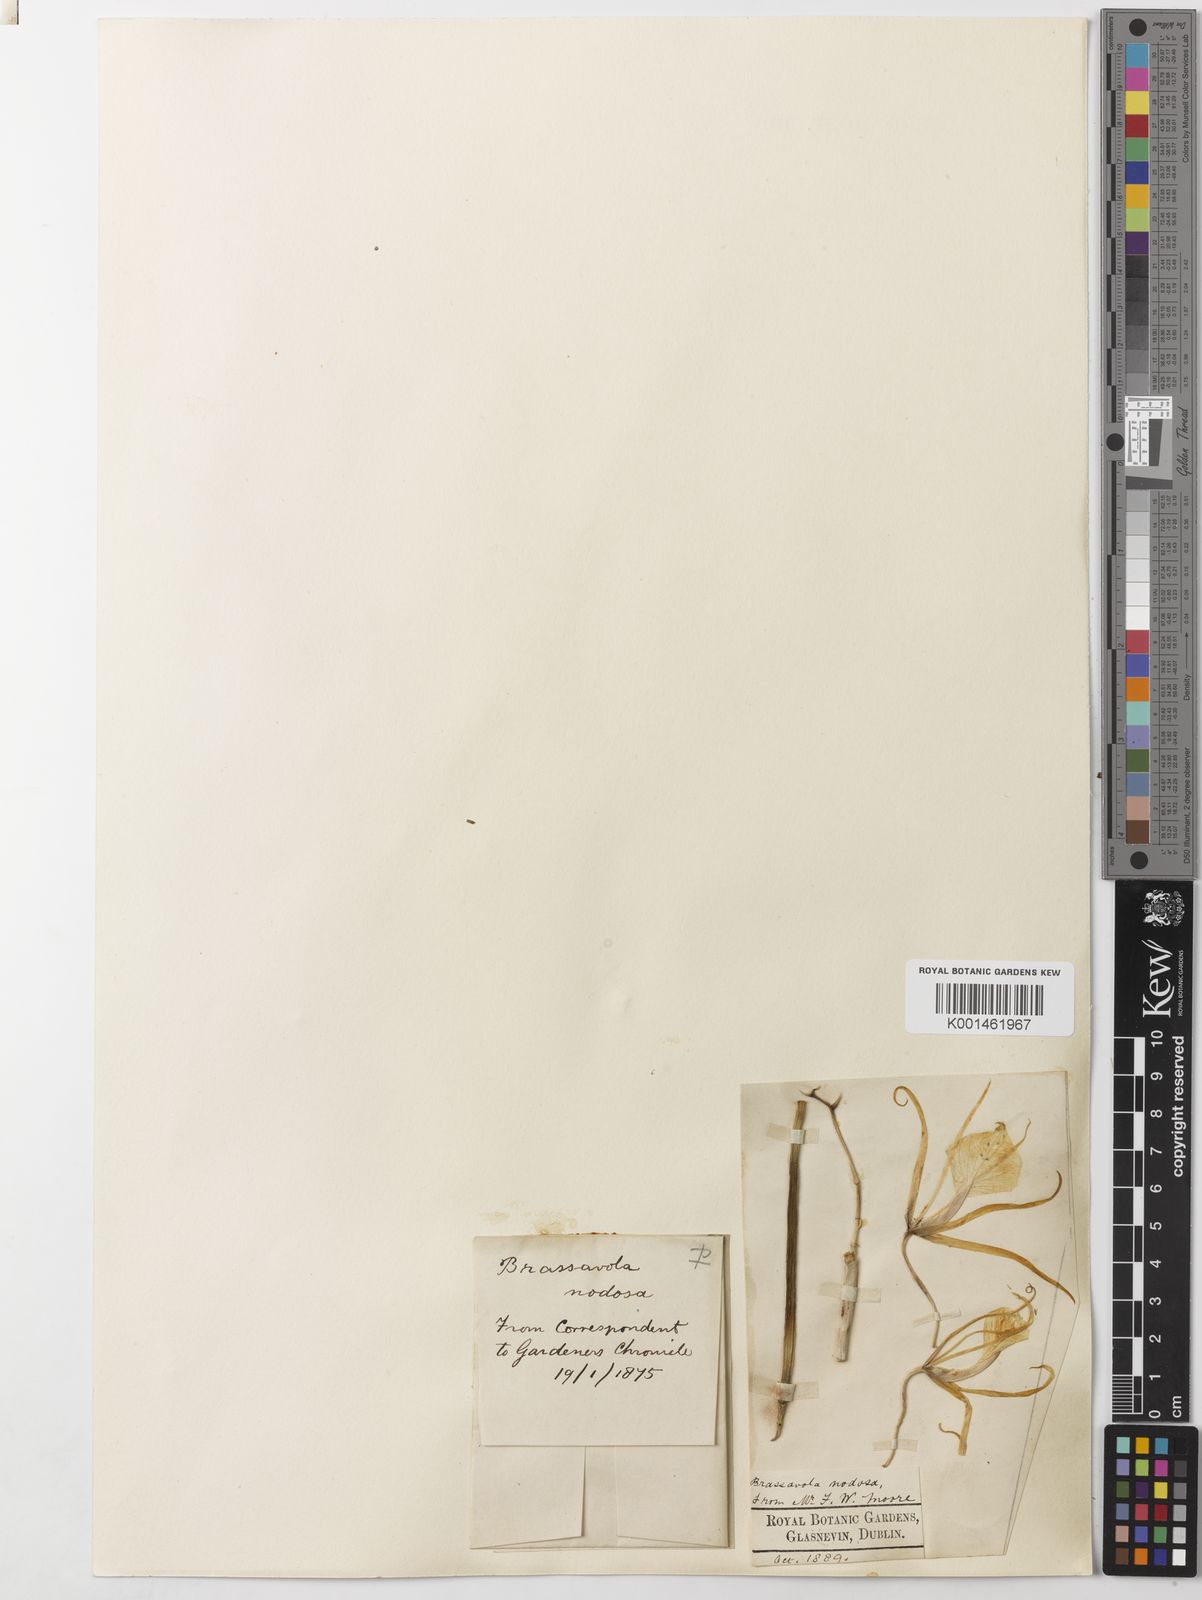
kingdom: Plantae
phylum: Tracheophyta
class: Liliopsida
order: Asparagales
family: Orchidaceae
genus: Brassavola
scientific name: Brassavola nodosa
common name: Lady of the night
